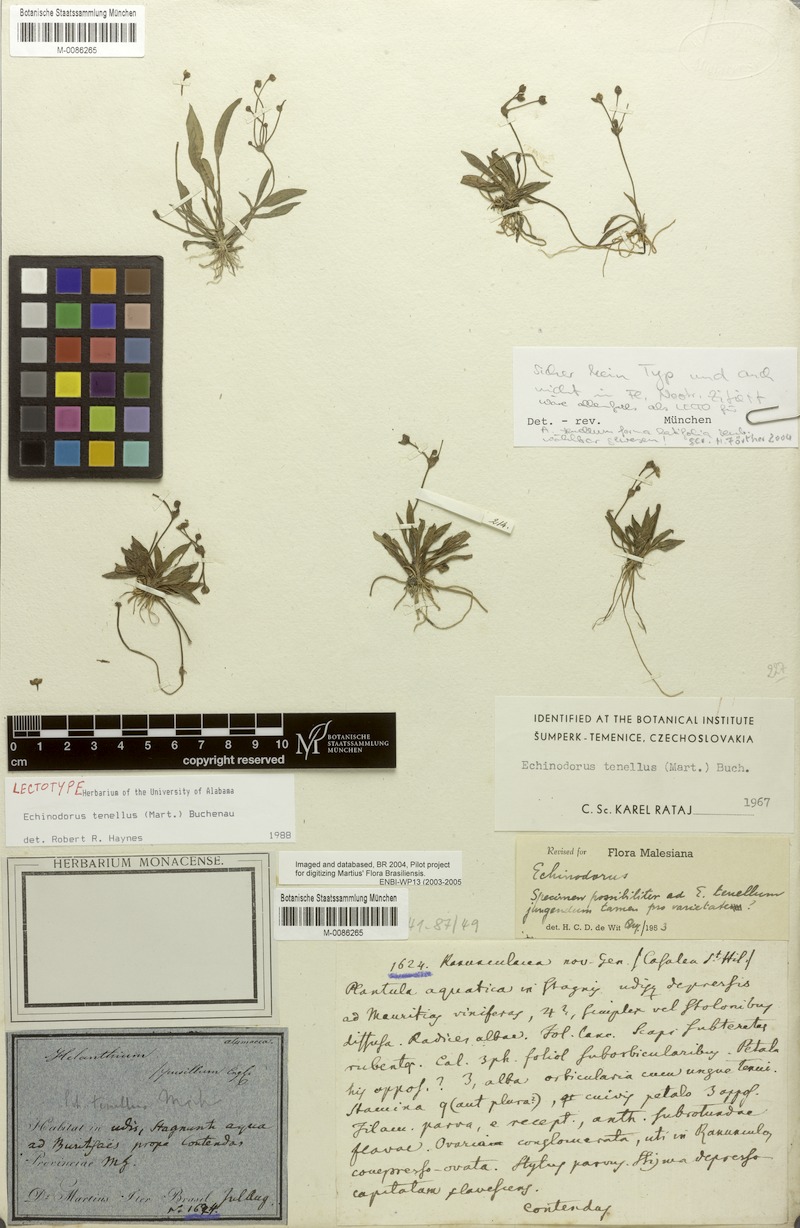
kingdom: Plantae
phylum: Tracheophyta
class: Liliopsida
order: Alismatales
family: Alismataceae
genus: Helanthium
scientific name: Helanthium tenellum
